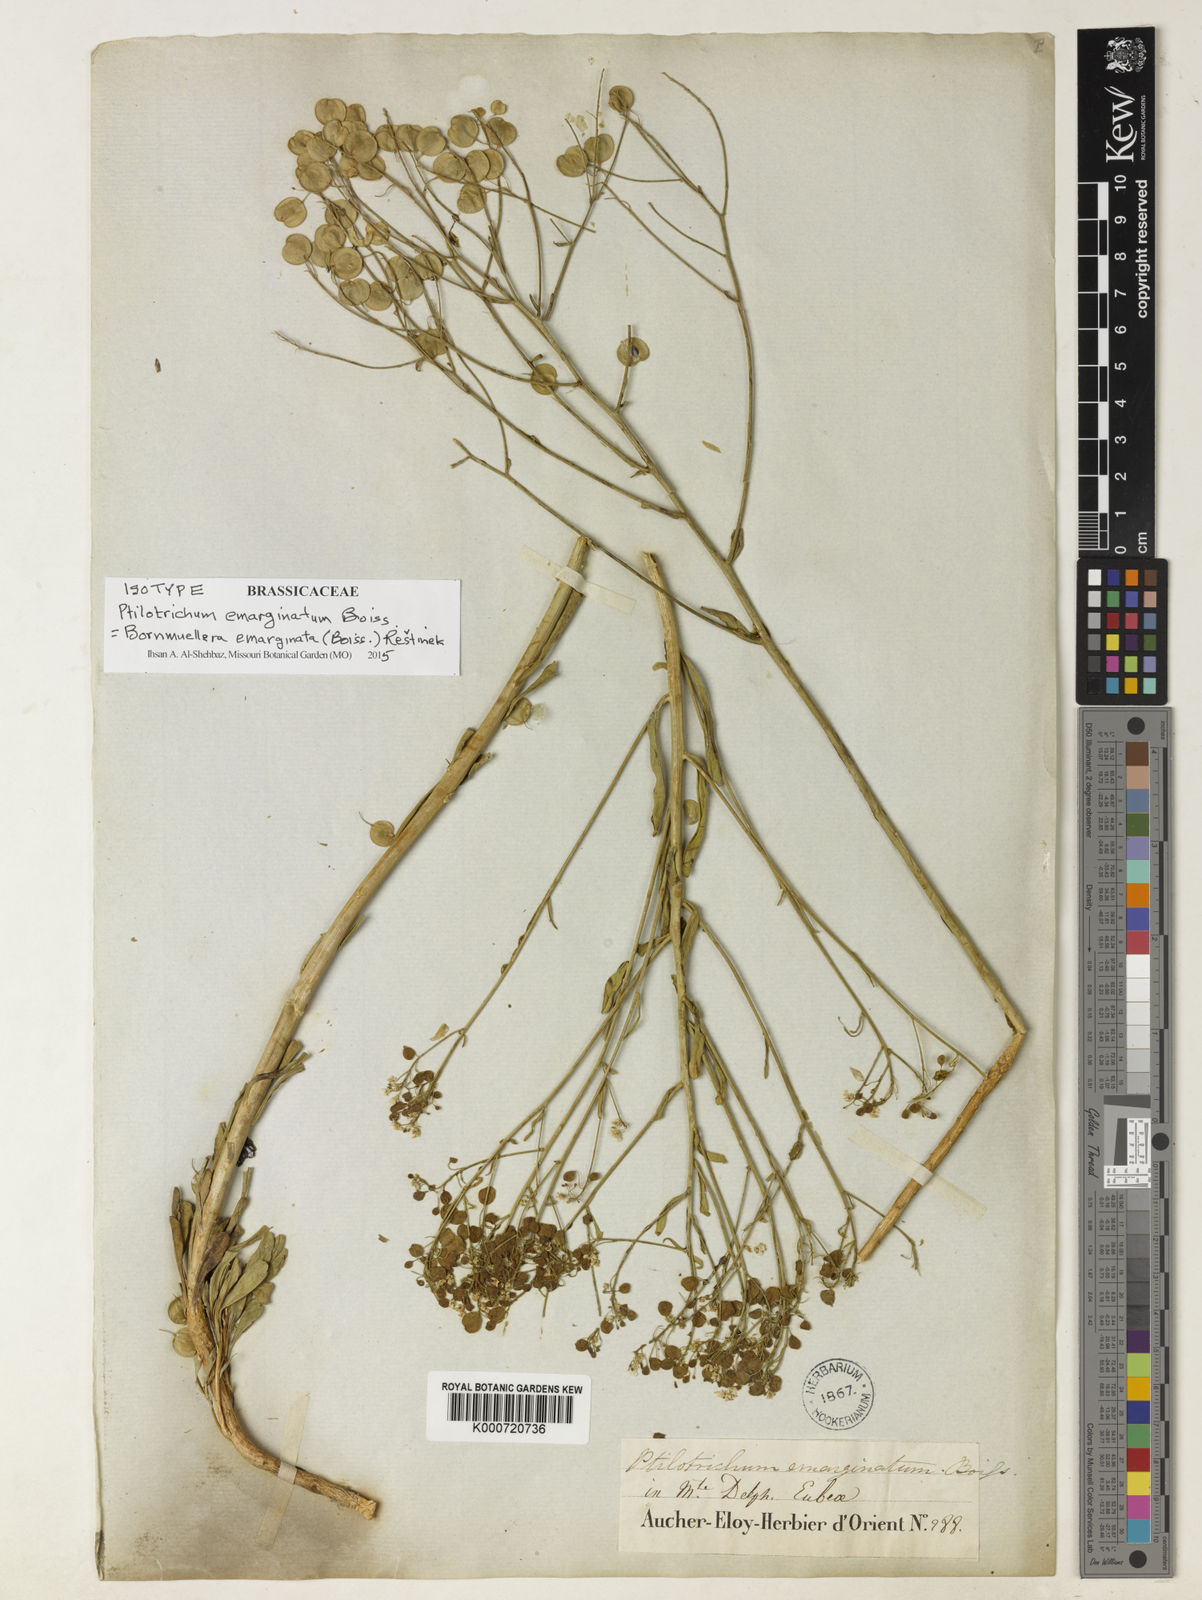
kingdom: Plantae
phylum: Tracheophyta
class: Magnoliopsida
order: Brassicales
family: Brassicaceae
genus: Bornmuellera
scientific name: Bornmuellera
